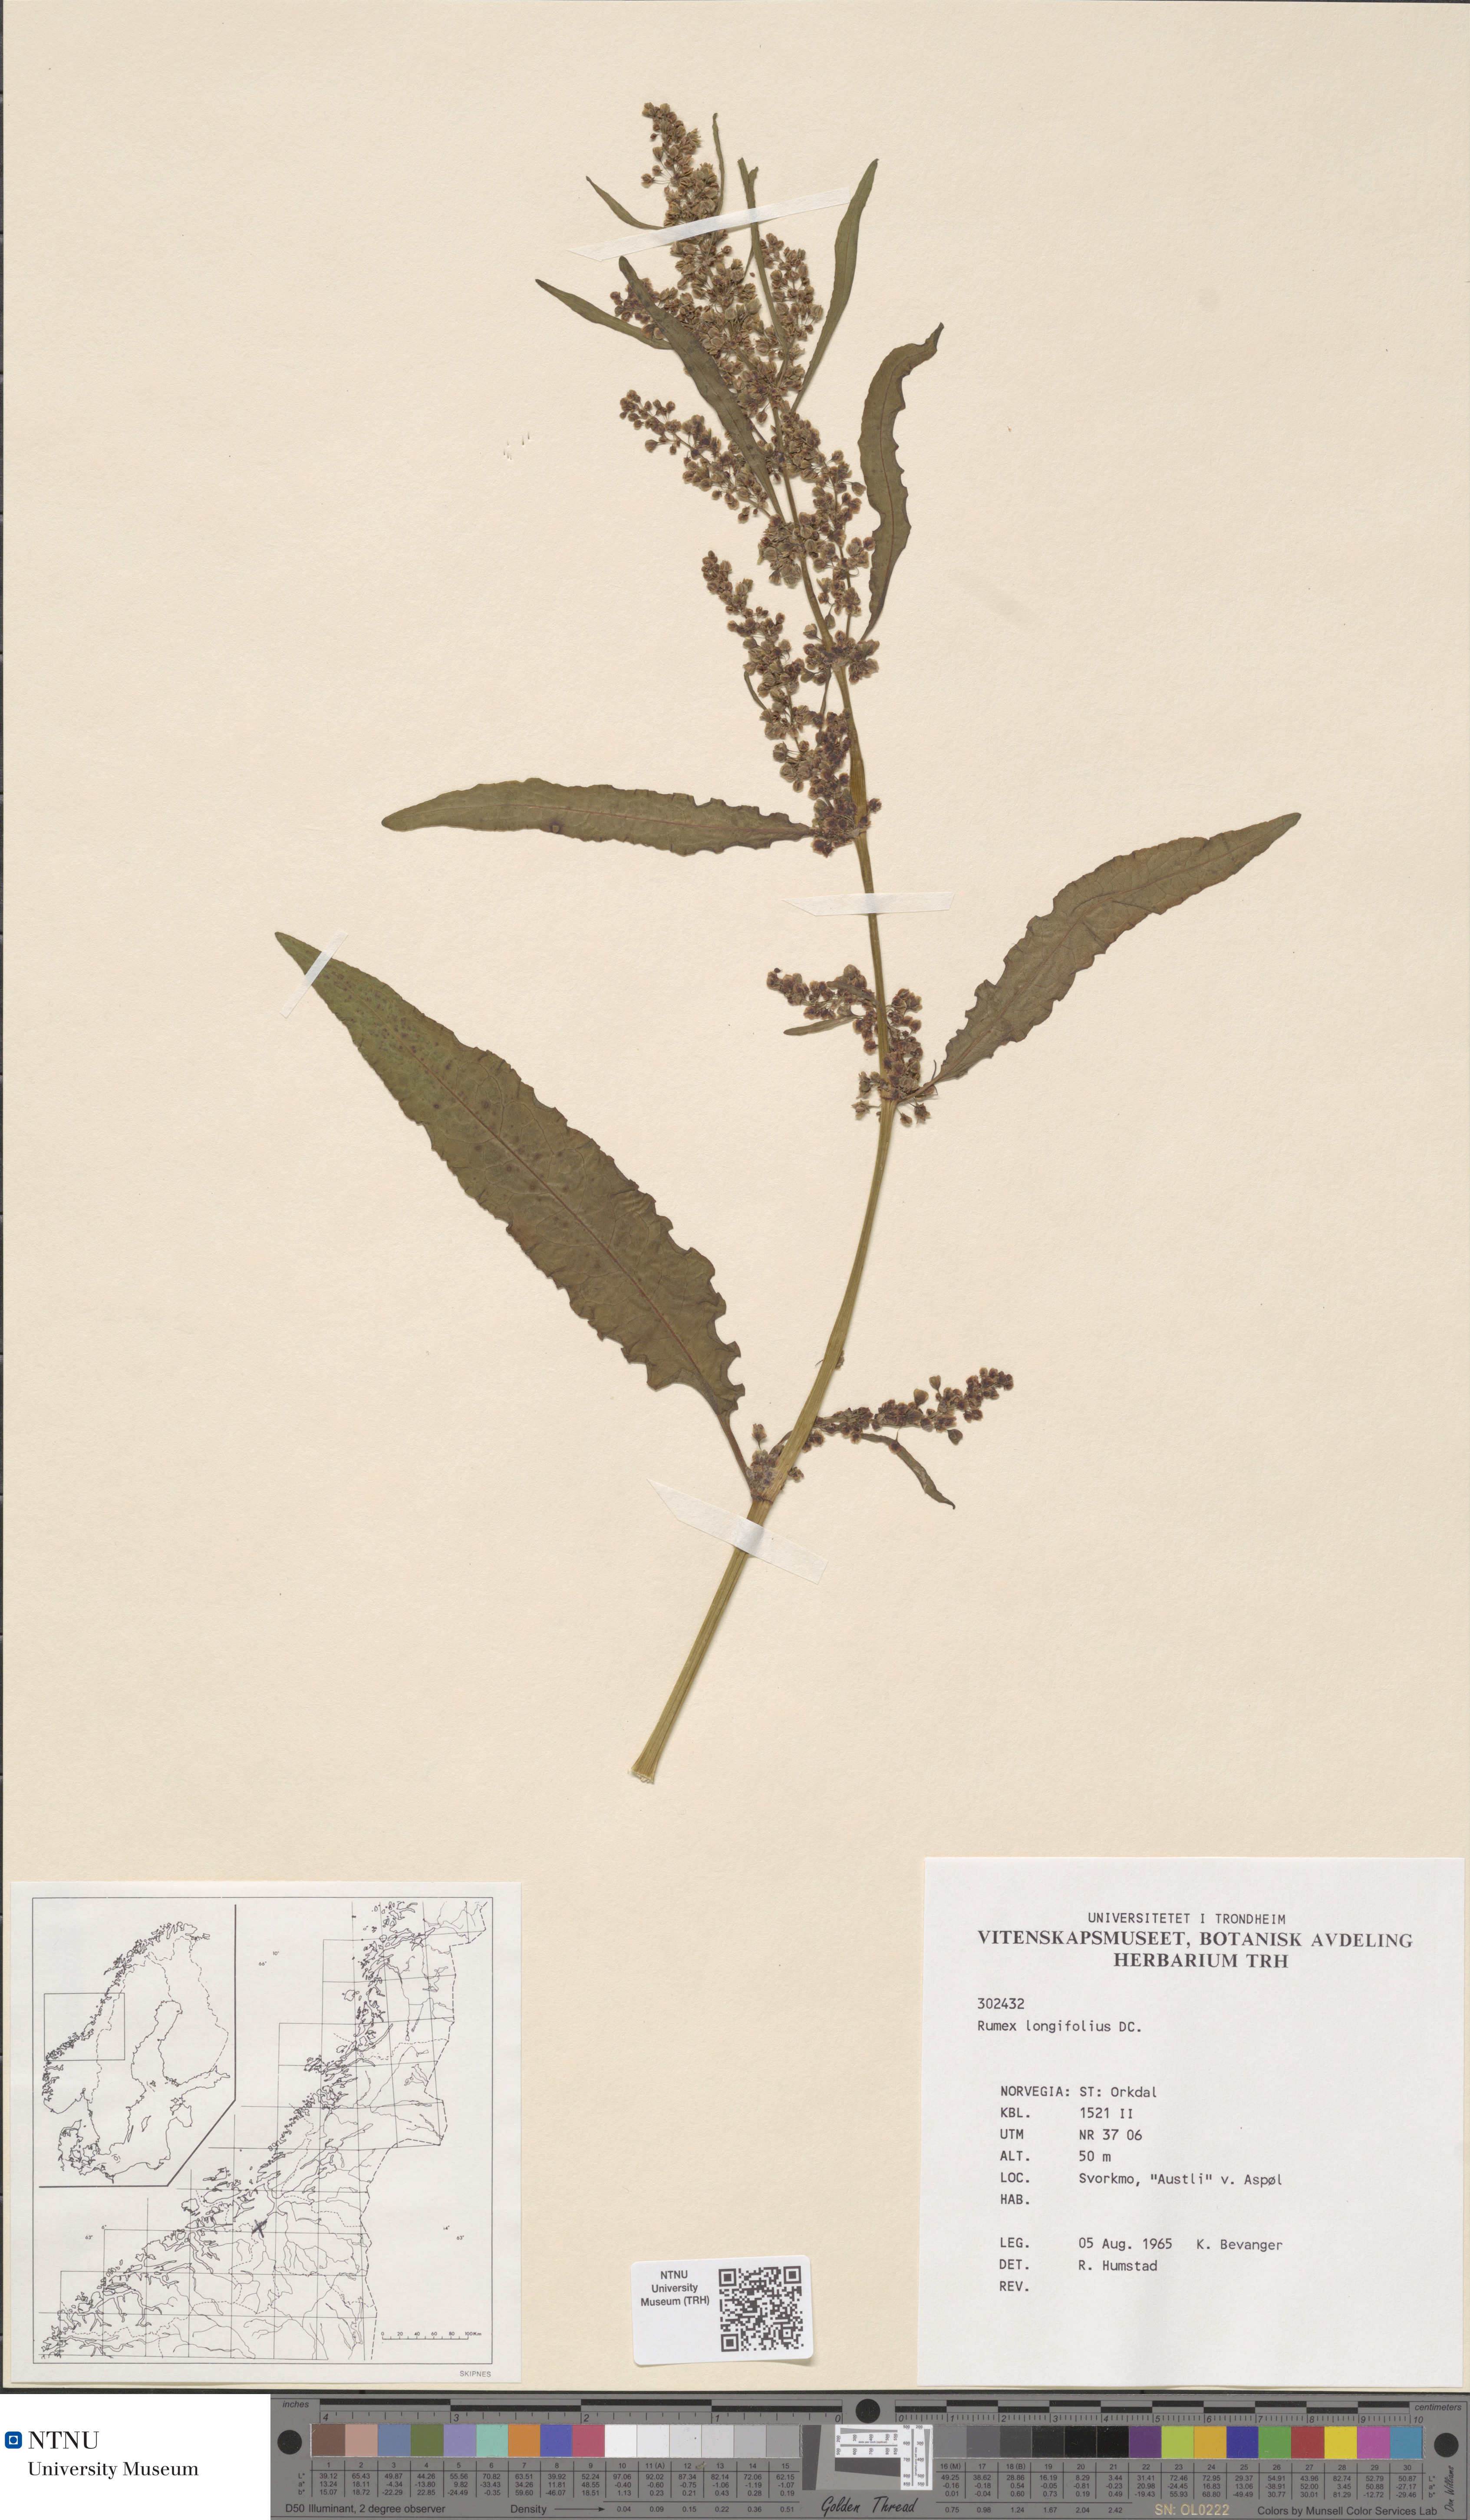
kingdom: Plantae
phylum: Tracheophyta
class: Magnoliopsida
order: Caryophyllales
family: Polygonaceae
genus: Rumex
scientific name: Rumex longifolius
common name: Dooryard dock
